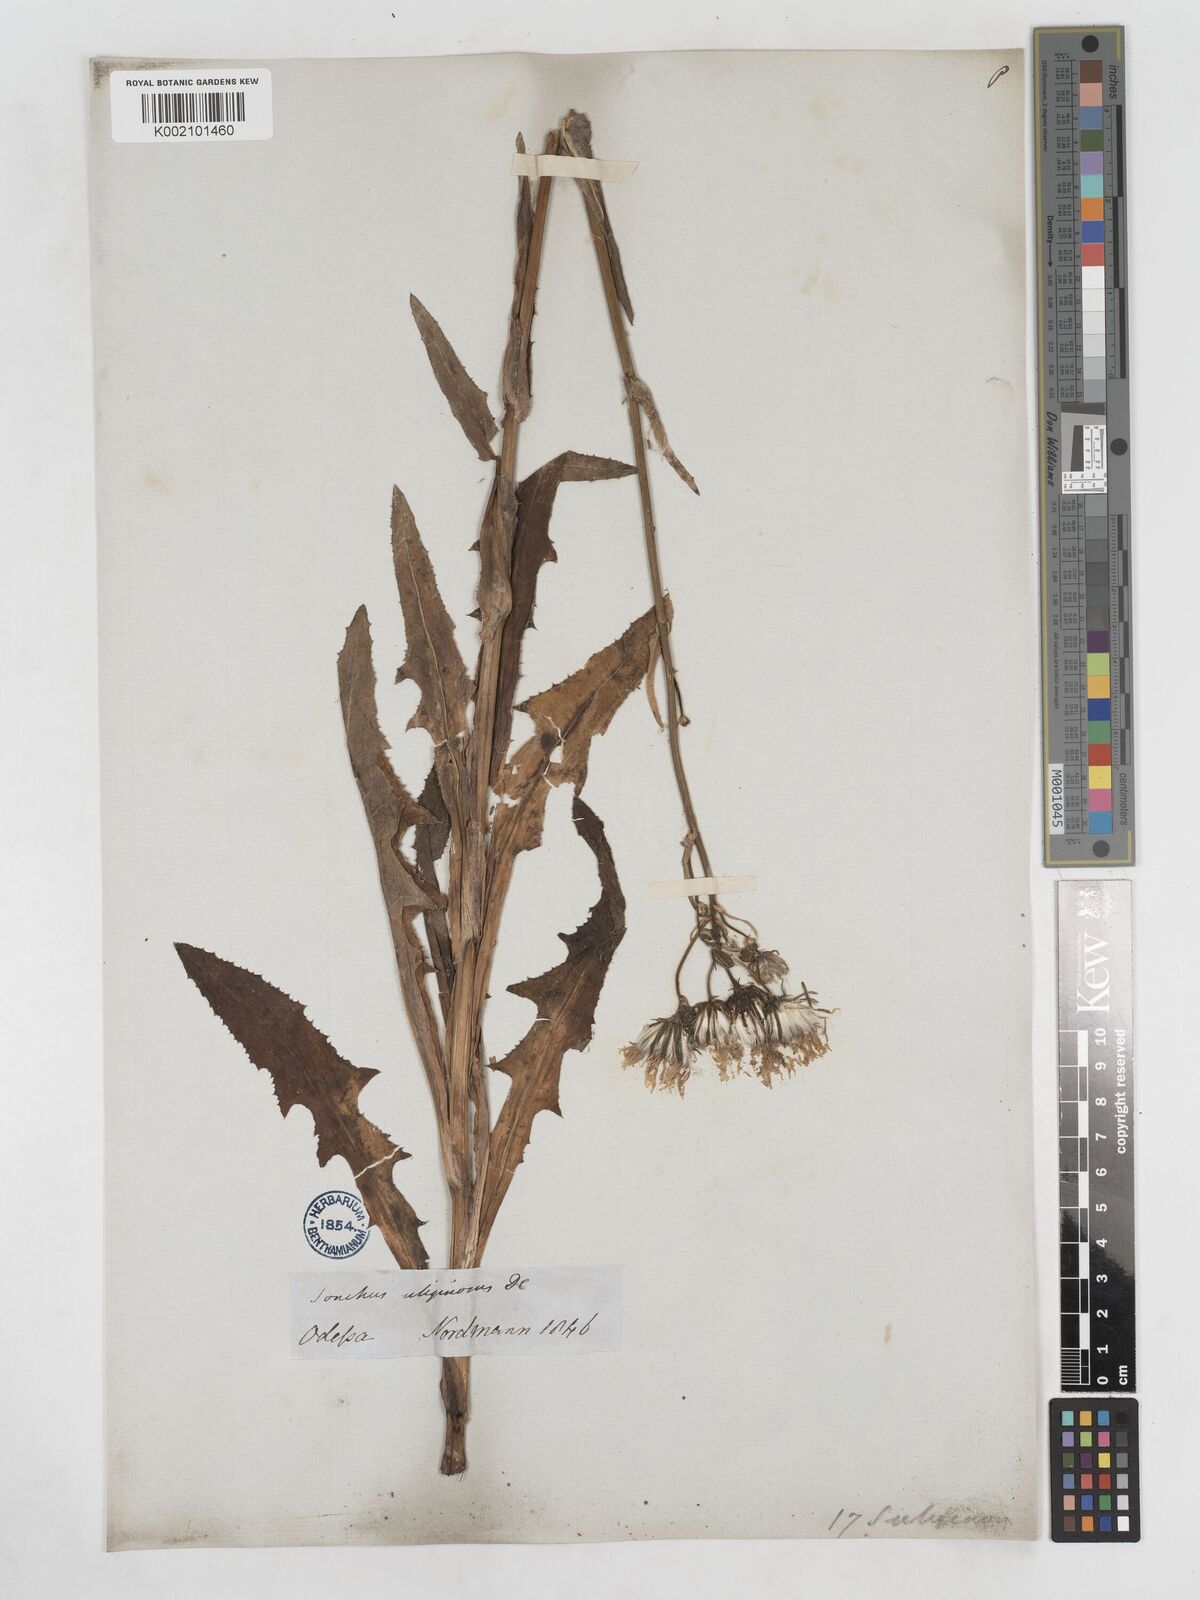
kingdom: Plantae
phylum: Tracheophyta
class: Magnoliopsida
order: Asterales
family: Asteraceae
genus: Sonchus
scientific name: Sonchus arvensis
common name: Perennial sow-thistle
